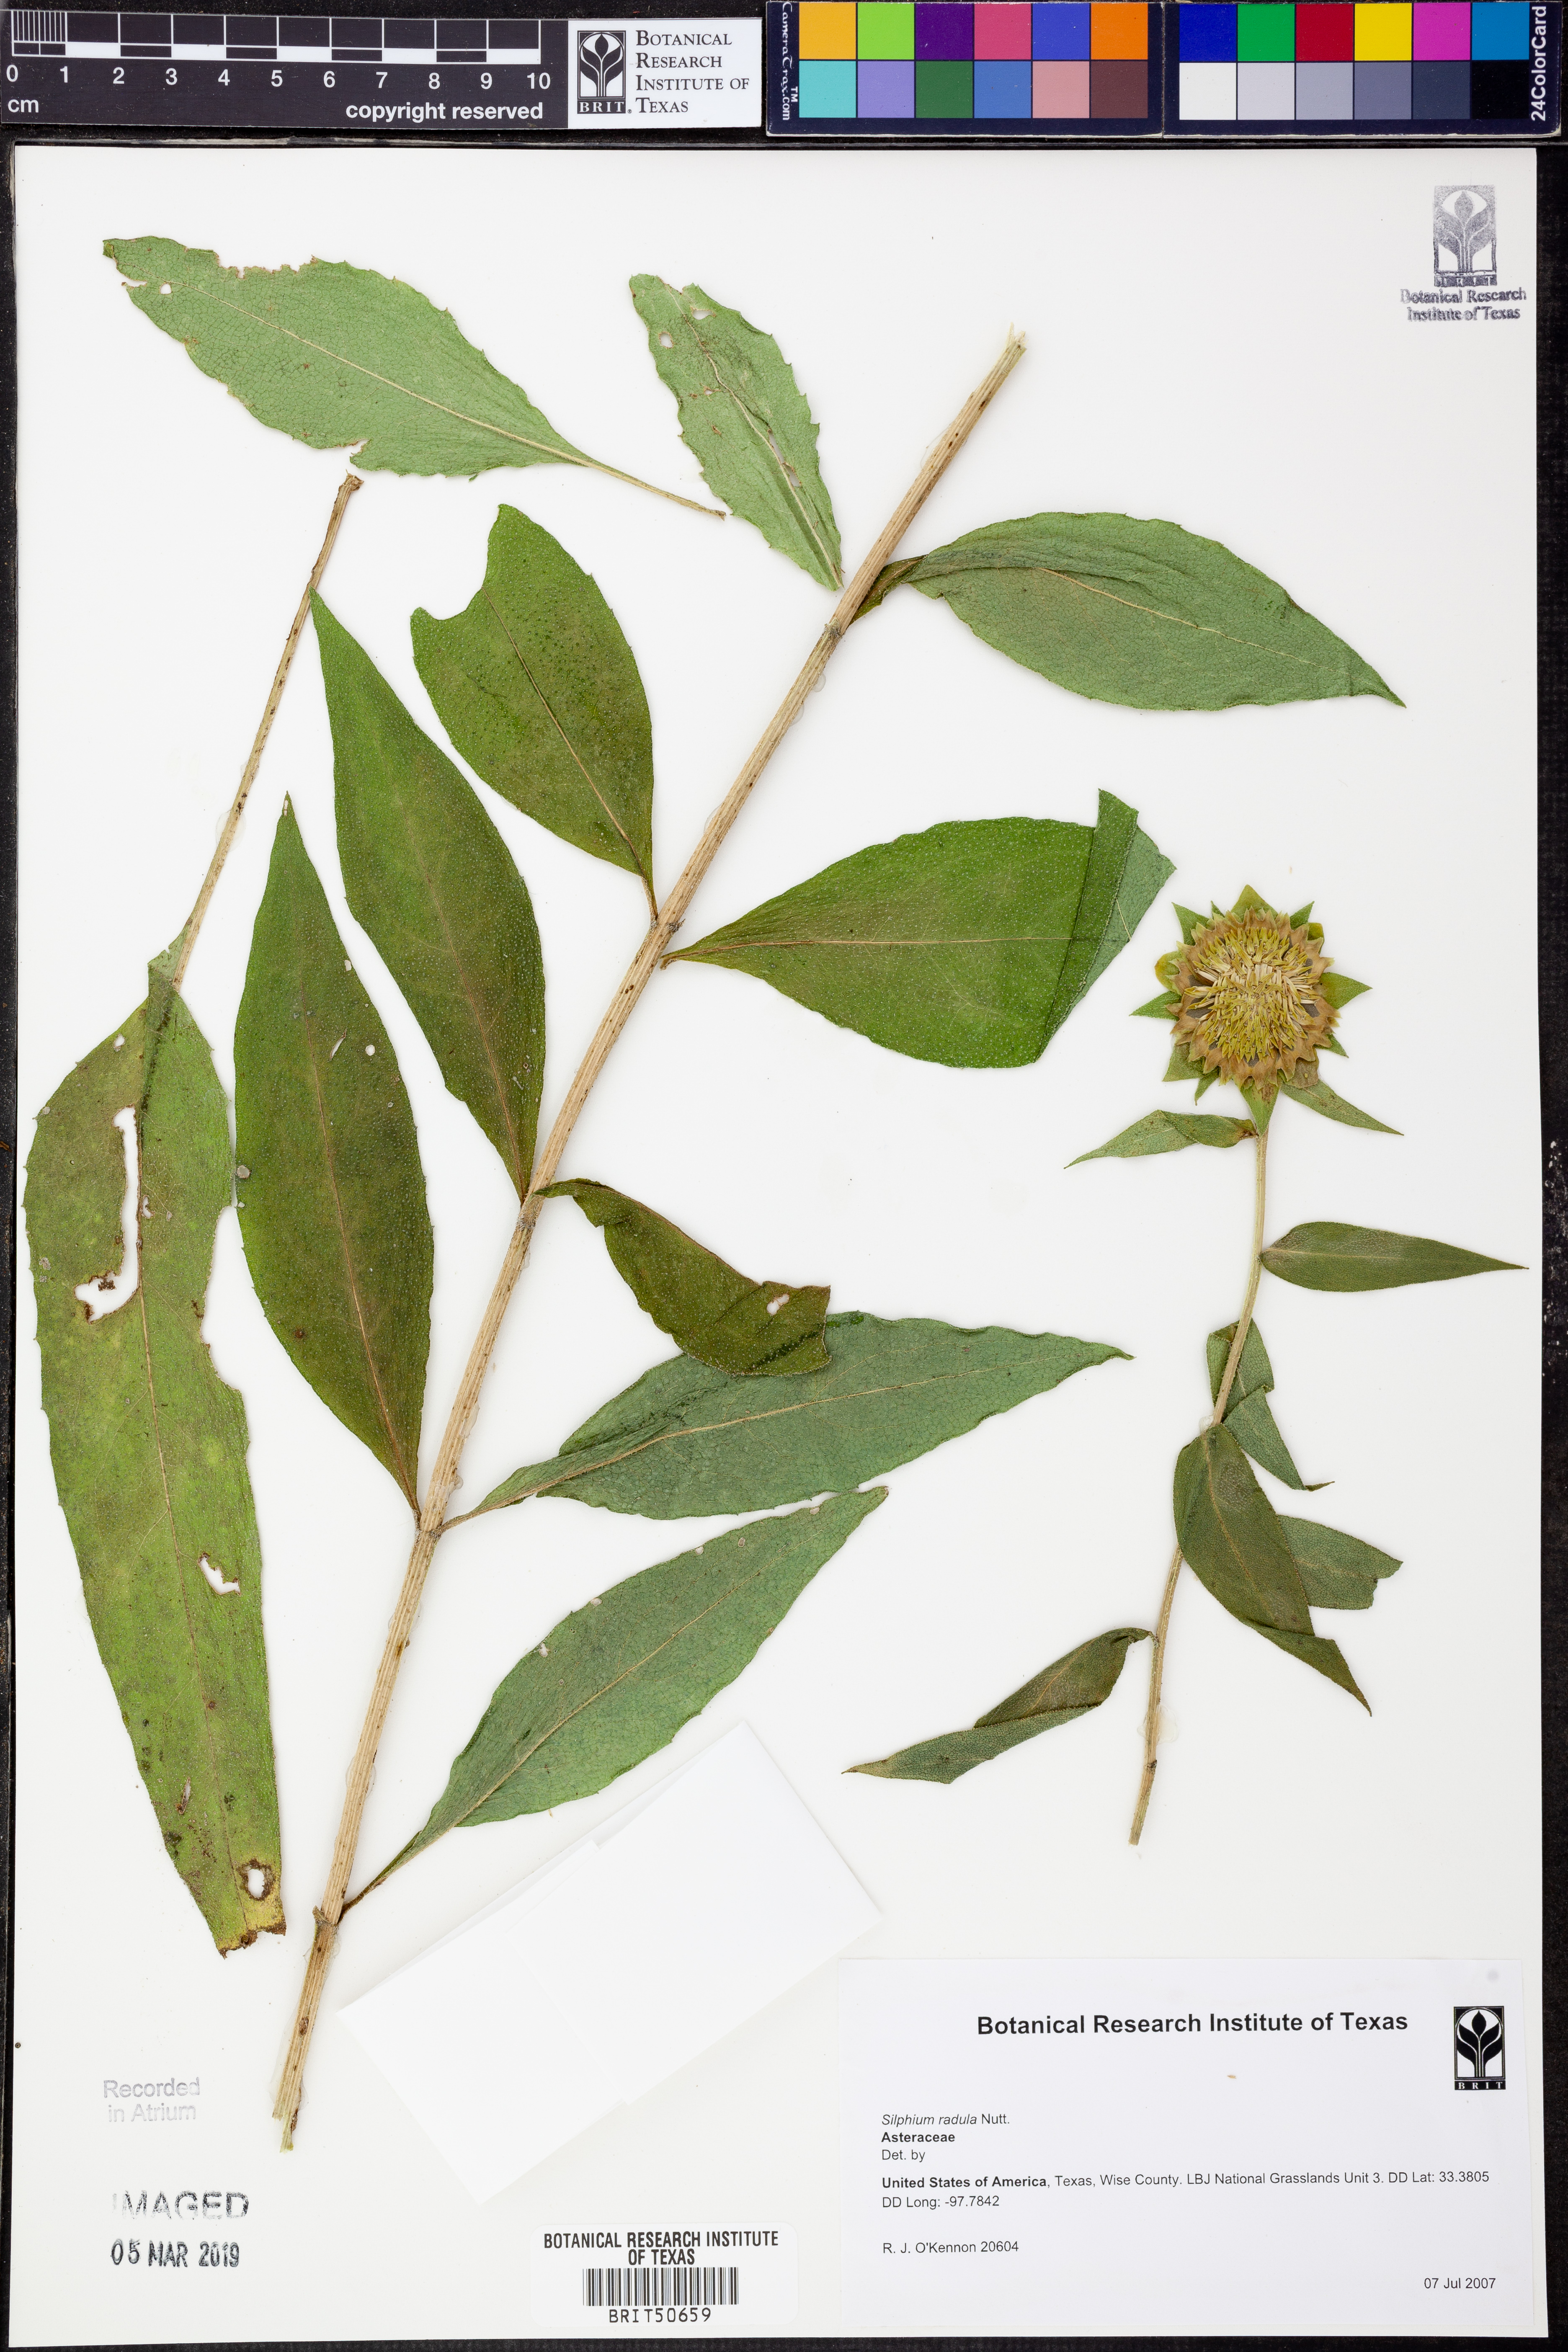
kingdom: Plantae
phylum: Tracheophyta
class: Magnoliopsida
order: Asterales
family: Asteraceae
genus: Silphium
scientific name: Silphium radula
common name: Roughleaf rosinweed
